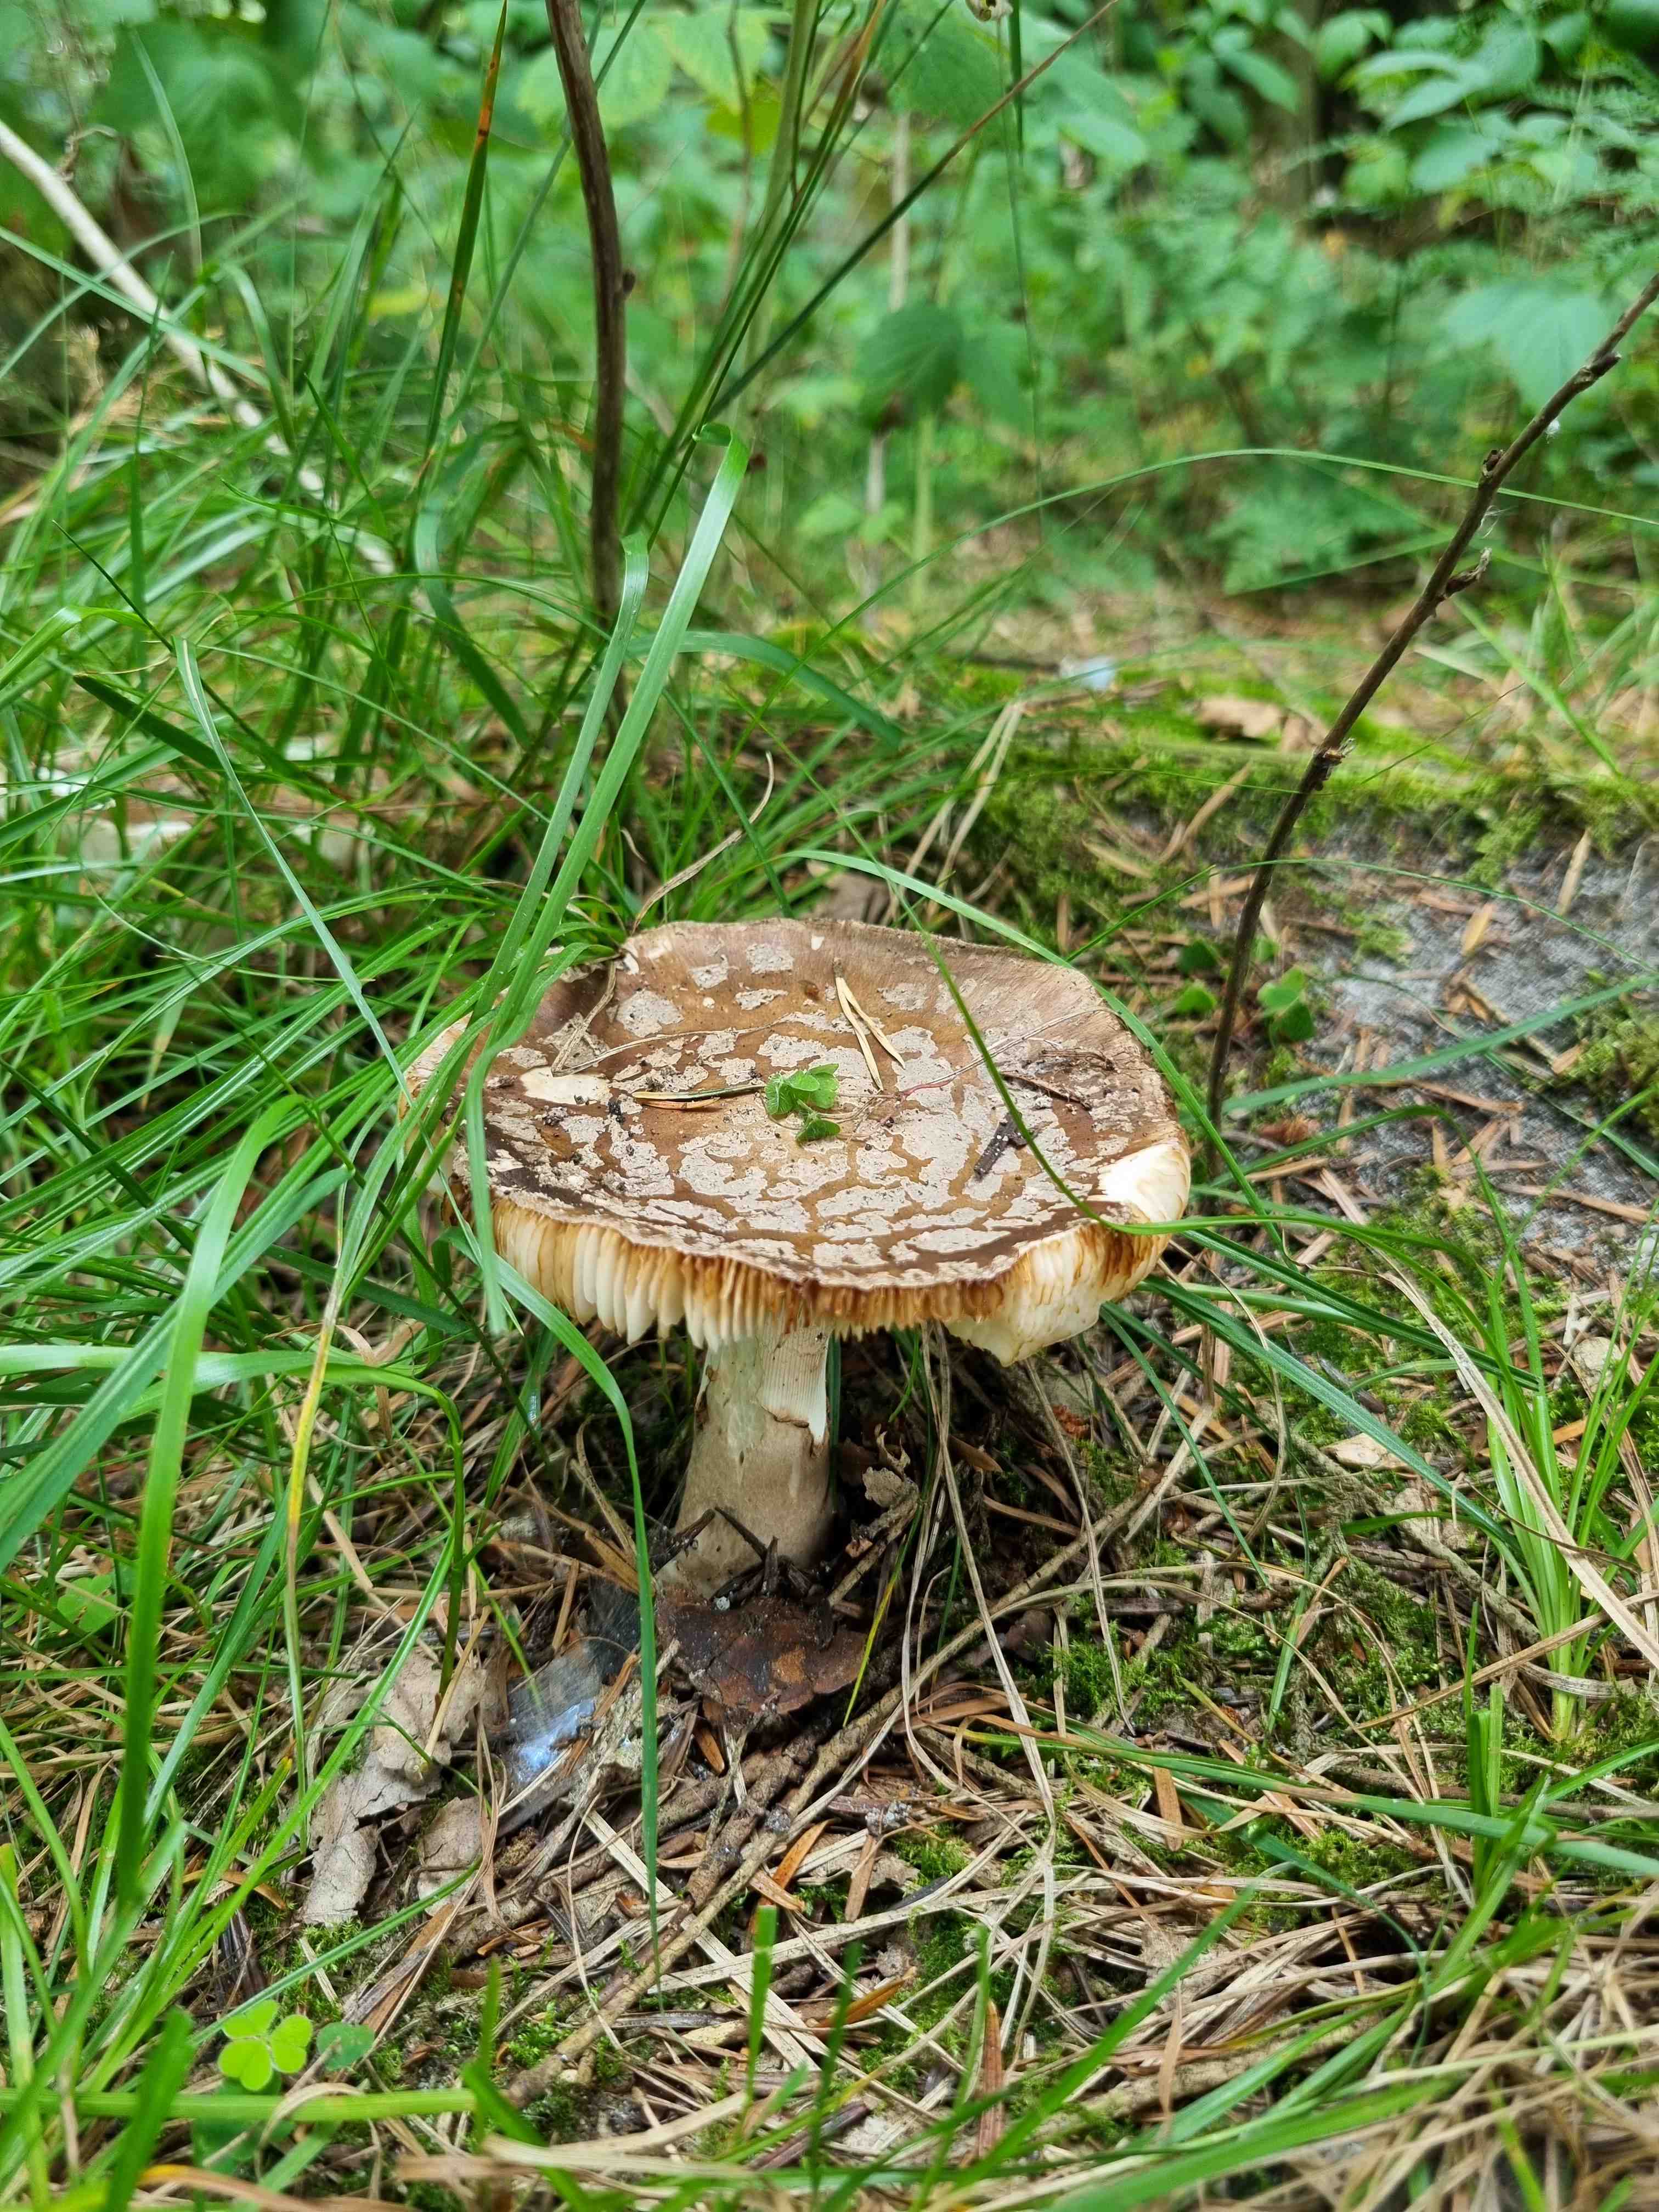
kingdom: Fungi
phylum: Basidiomycota
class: Agaricomycetes
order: Agaricales
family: Amanitaceae
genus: Amanita
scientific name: Amanita rubescens
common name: rødmende fluesvamp
